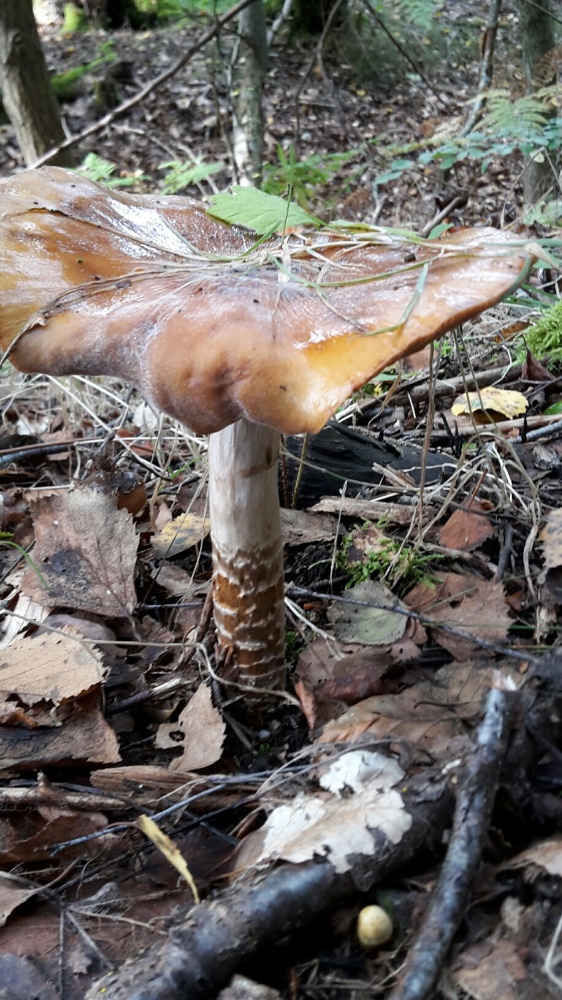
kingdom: Fungi
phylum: Basidiomycota
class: Agaricomycetes
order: Agaricales
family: Cortinariaceae
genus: Cortinarius
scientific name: Cortinarius trivialis
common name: brunslimet slørhat
